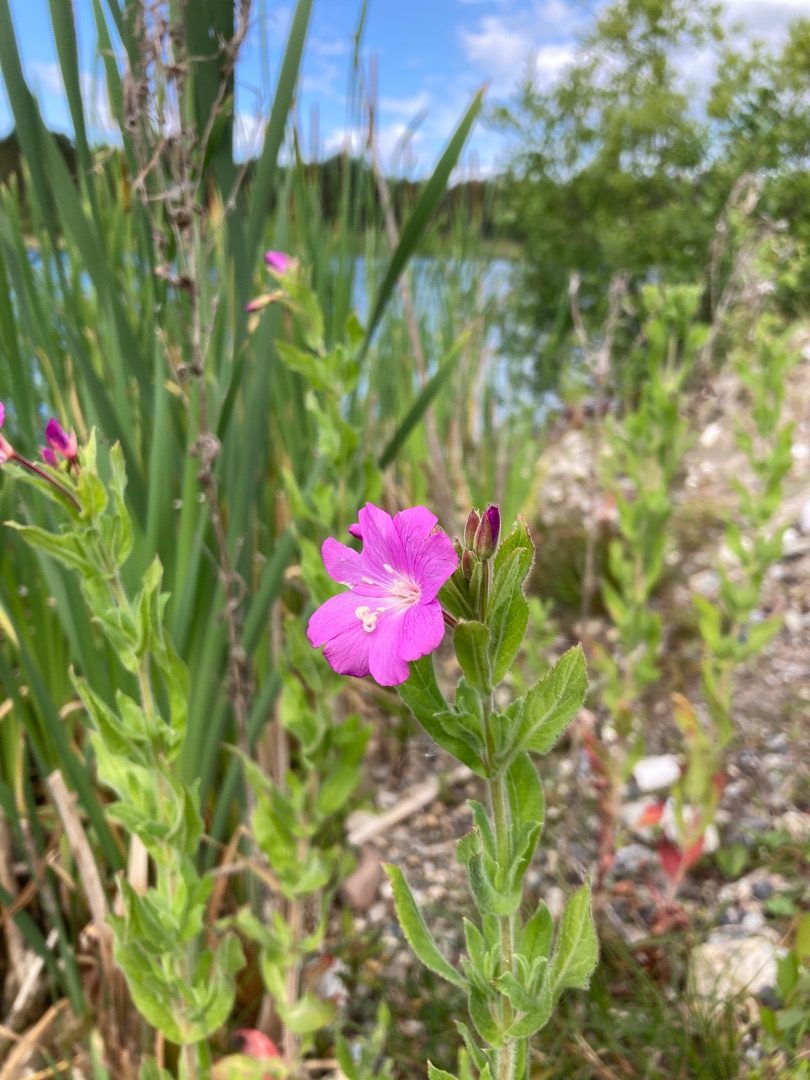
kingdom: Plantae
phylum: Tracheophyta
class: Magnoliopsida
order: Myrtales
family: Onagraceae
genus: Epilobium
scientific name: Epilobium hirsutum
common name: Lådden dueurt
